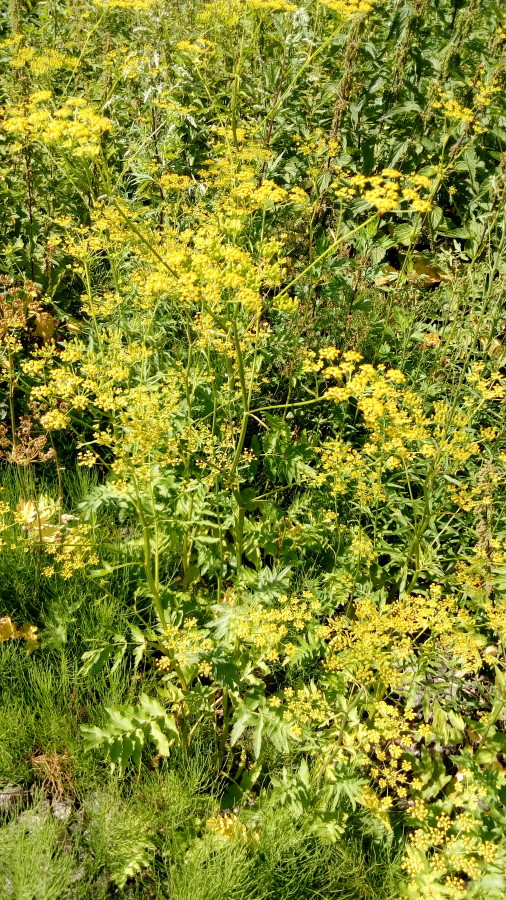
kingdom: Plantae
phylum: Tracheophyta
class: Magnoliopsida
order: Apiales
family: Apiaceae
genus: Pastinaca
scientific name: Pastinaca sativa
